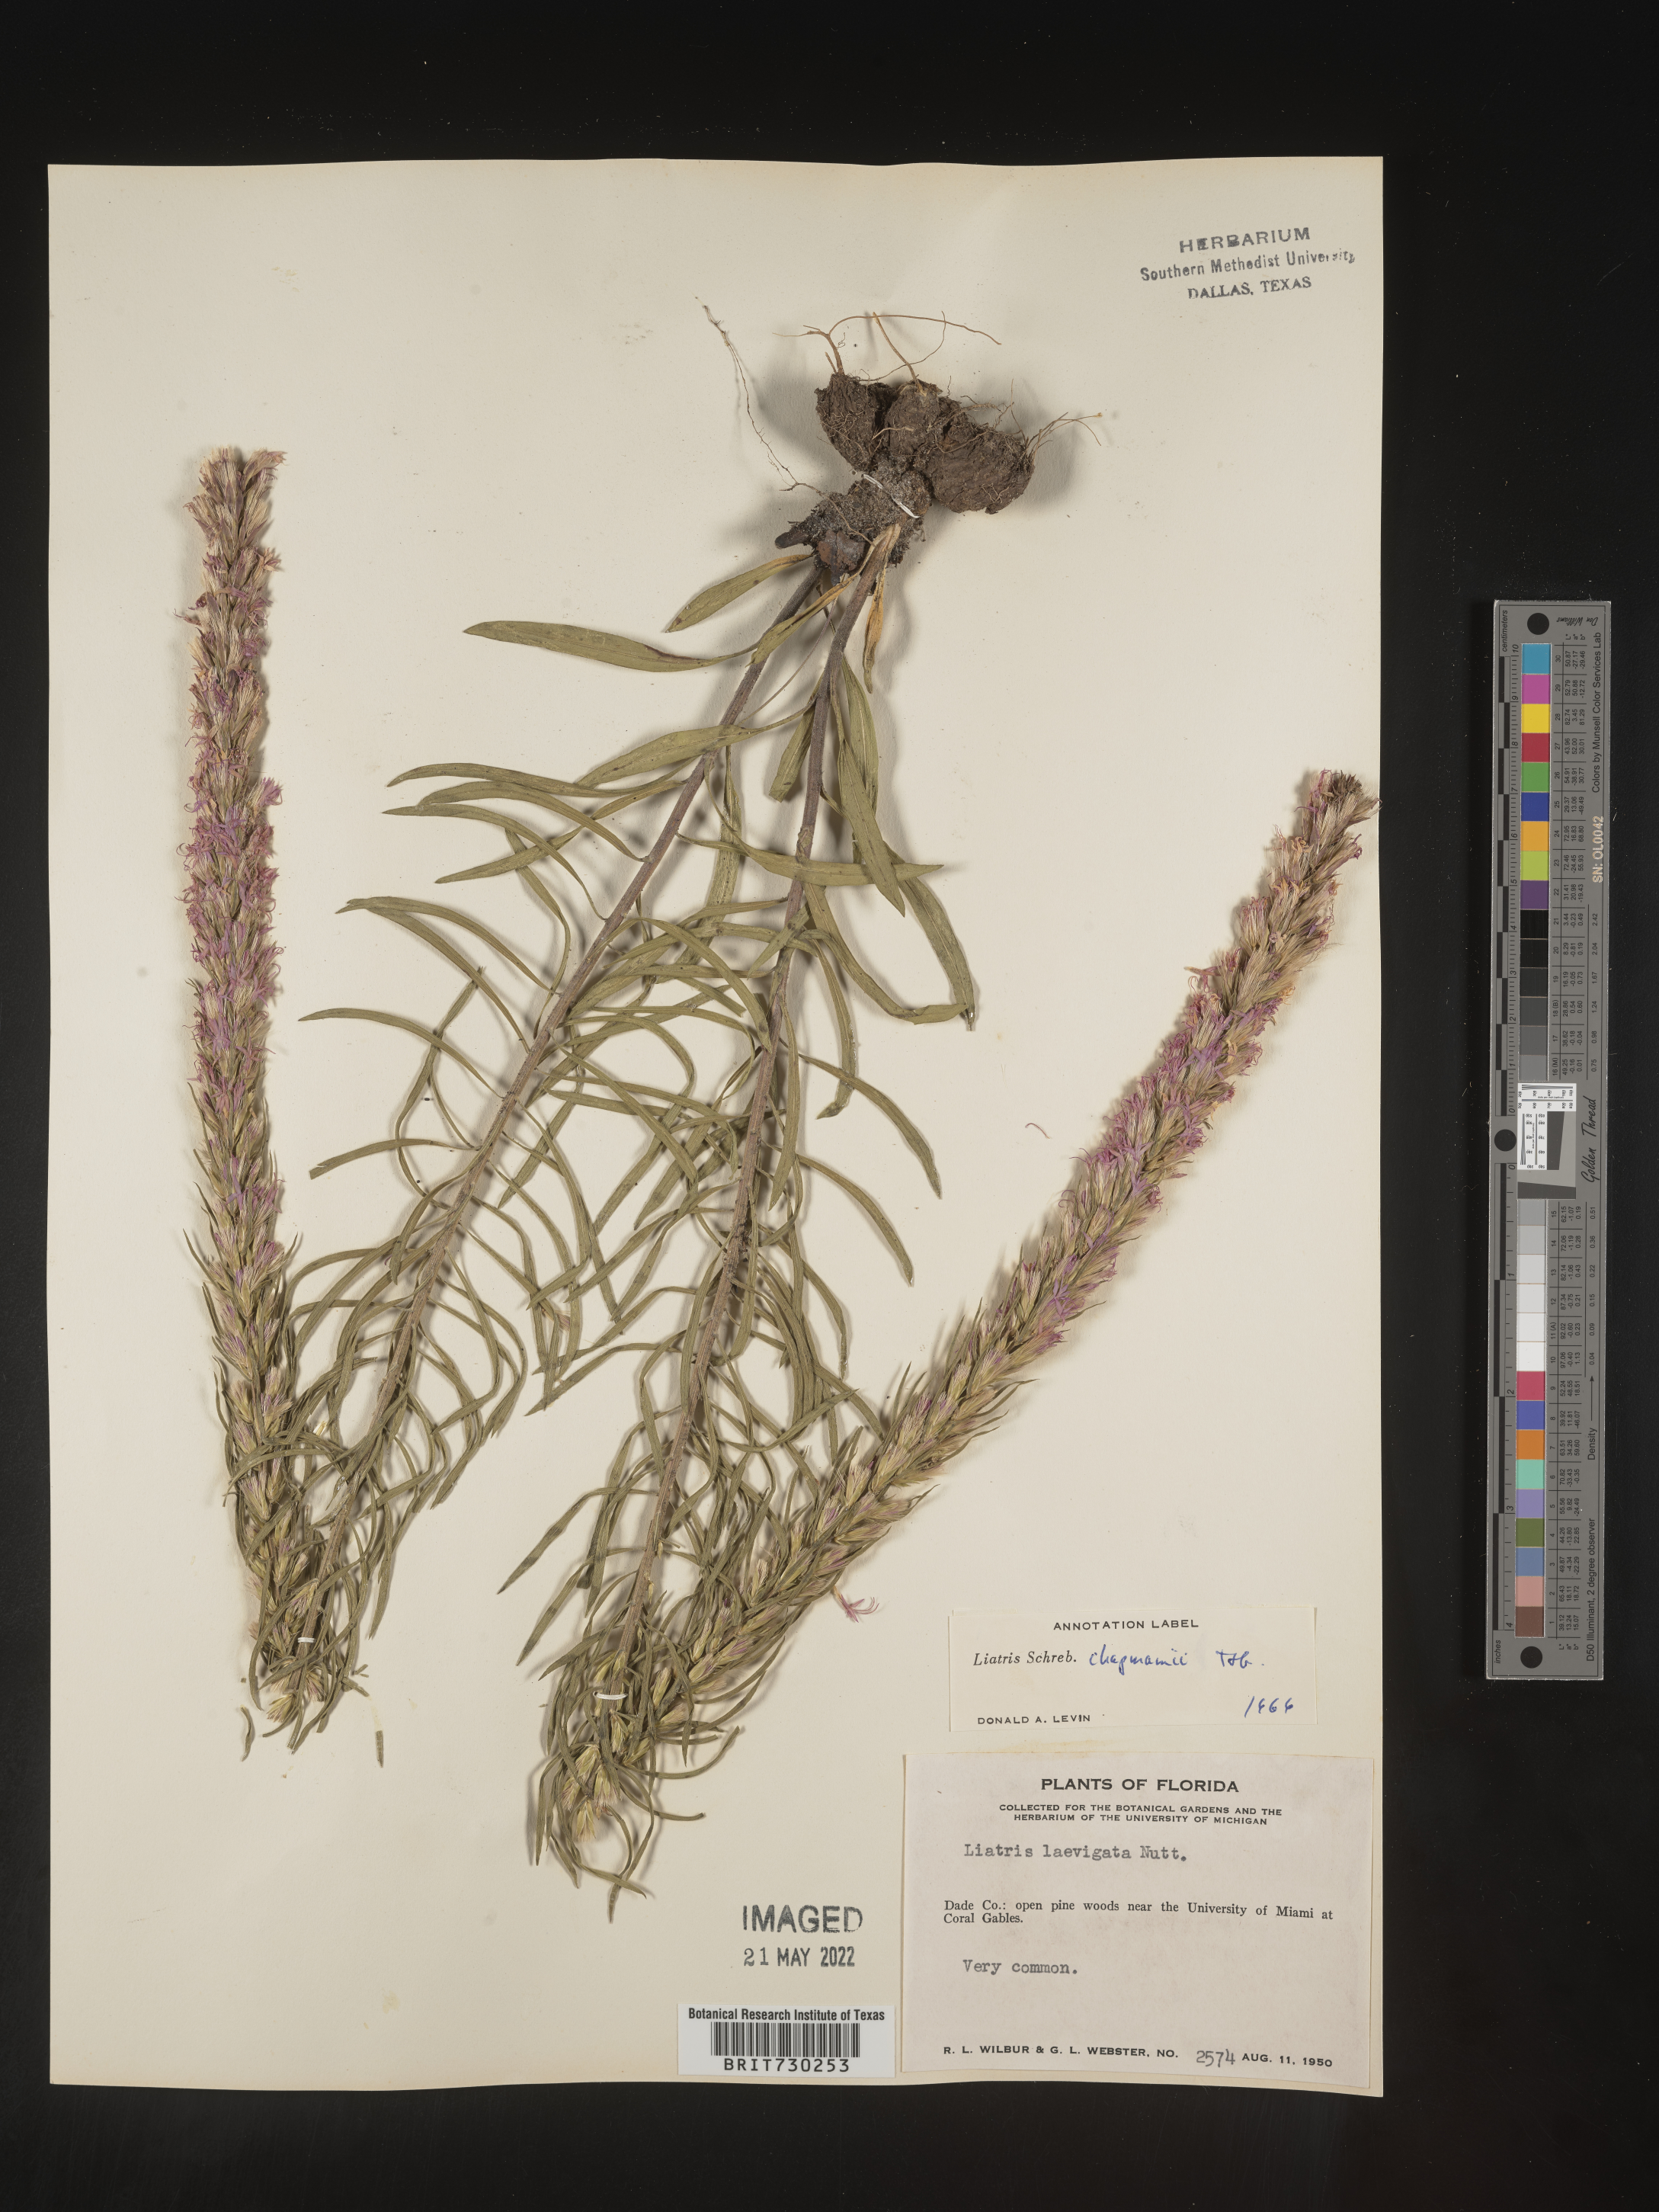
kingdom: Plantae
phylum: Tracheophyta
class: Magnoliopsida
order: Asterales
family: Asteraceae
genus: Liatris
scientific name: Liatris chapmanii
